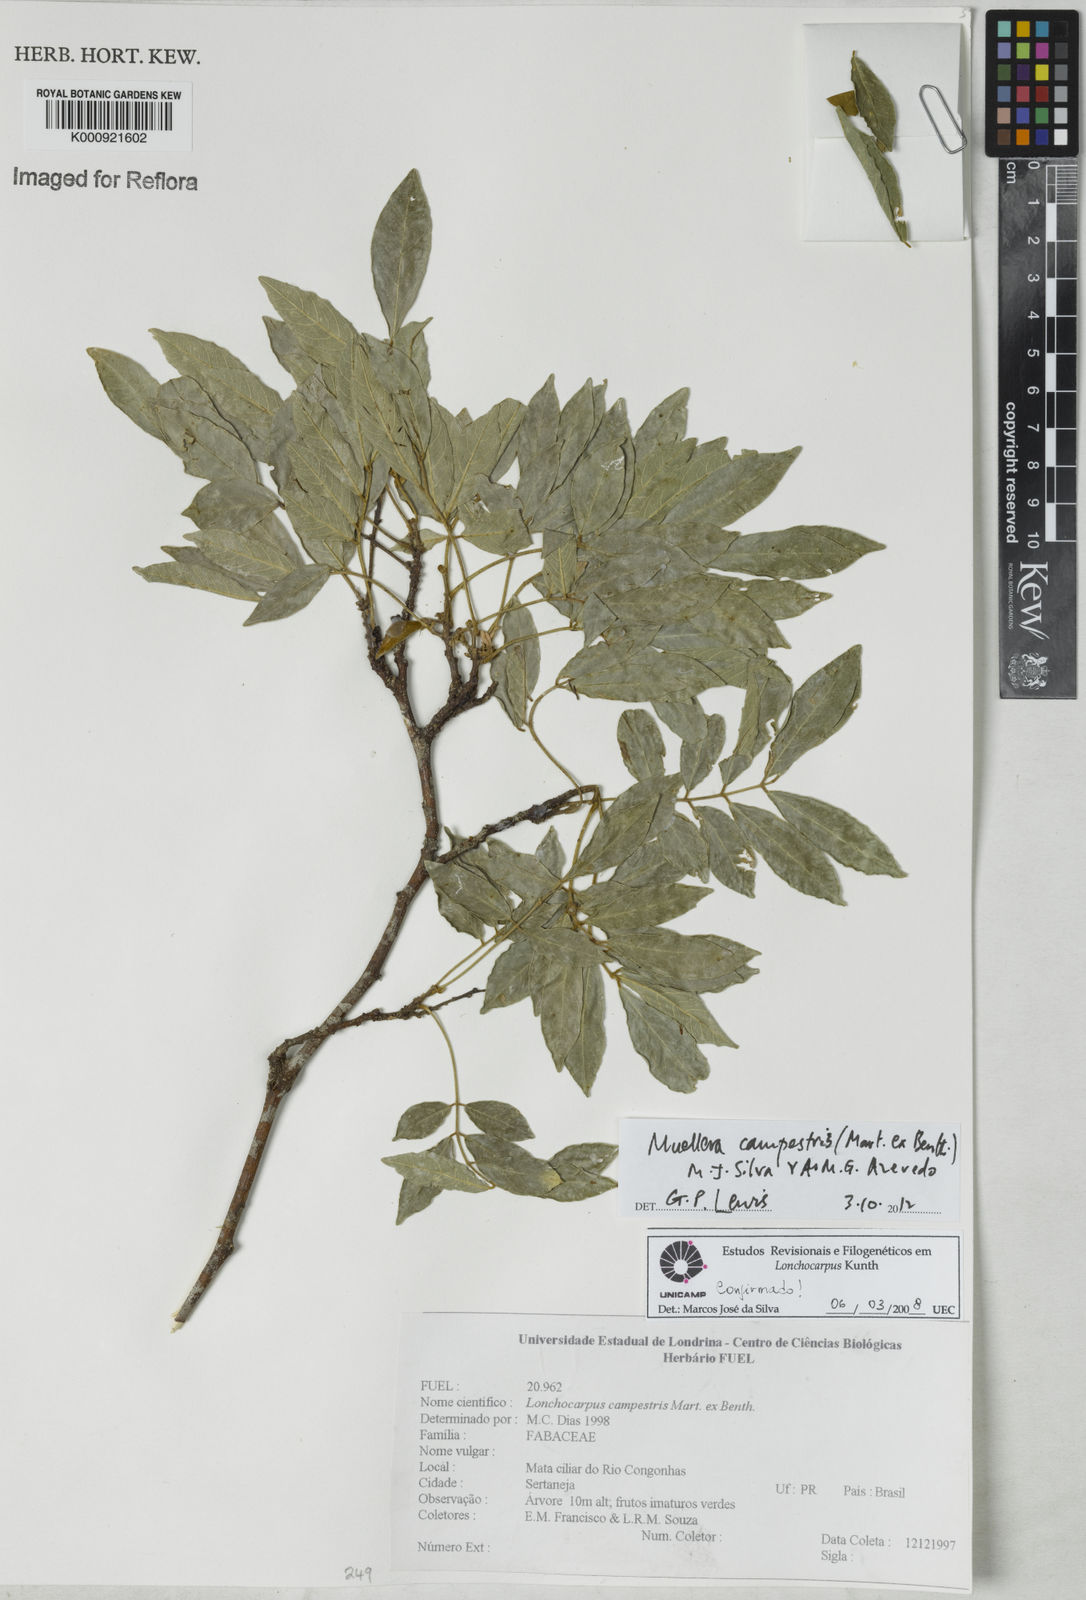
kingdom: Plantae
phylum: Tracheophyta
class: Magnoliopsida
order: Fabales
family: Fabaceae
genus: Muellera
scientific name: Muellera campestris
